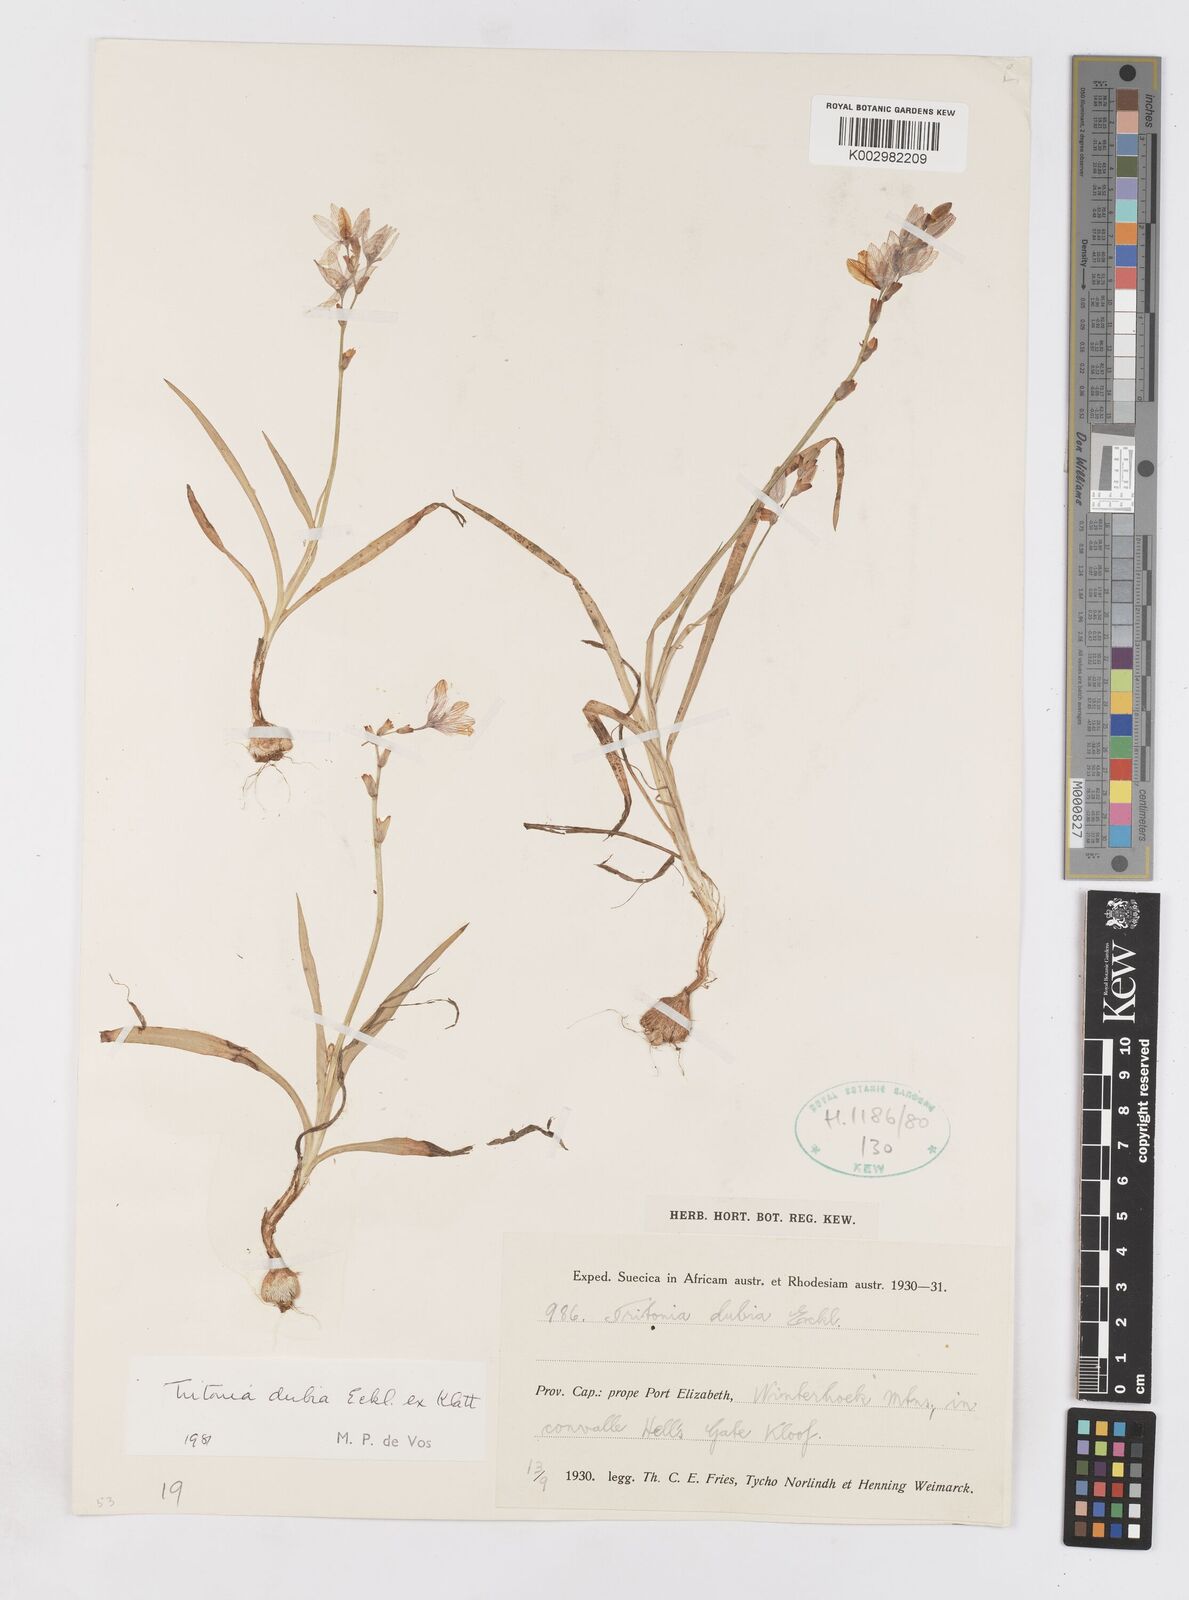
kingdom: Plantae
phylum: Tracheophyta
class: Liliopsida
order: Asparagales
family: Iridaceae
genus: Tritonia
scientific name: Tritonia dubia
